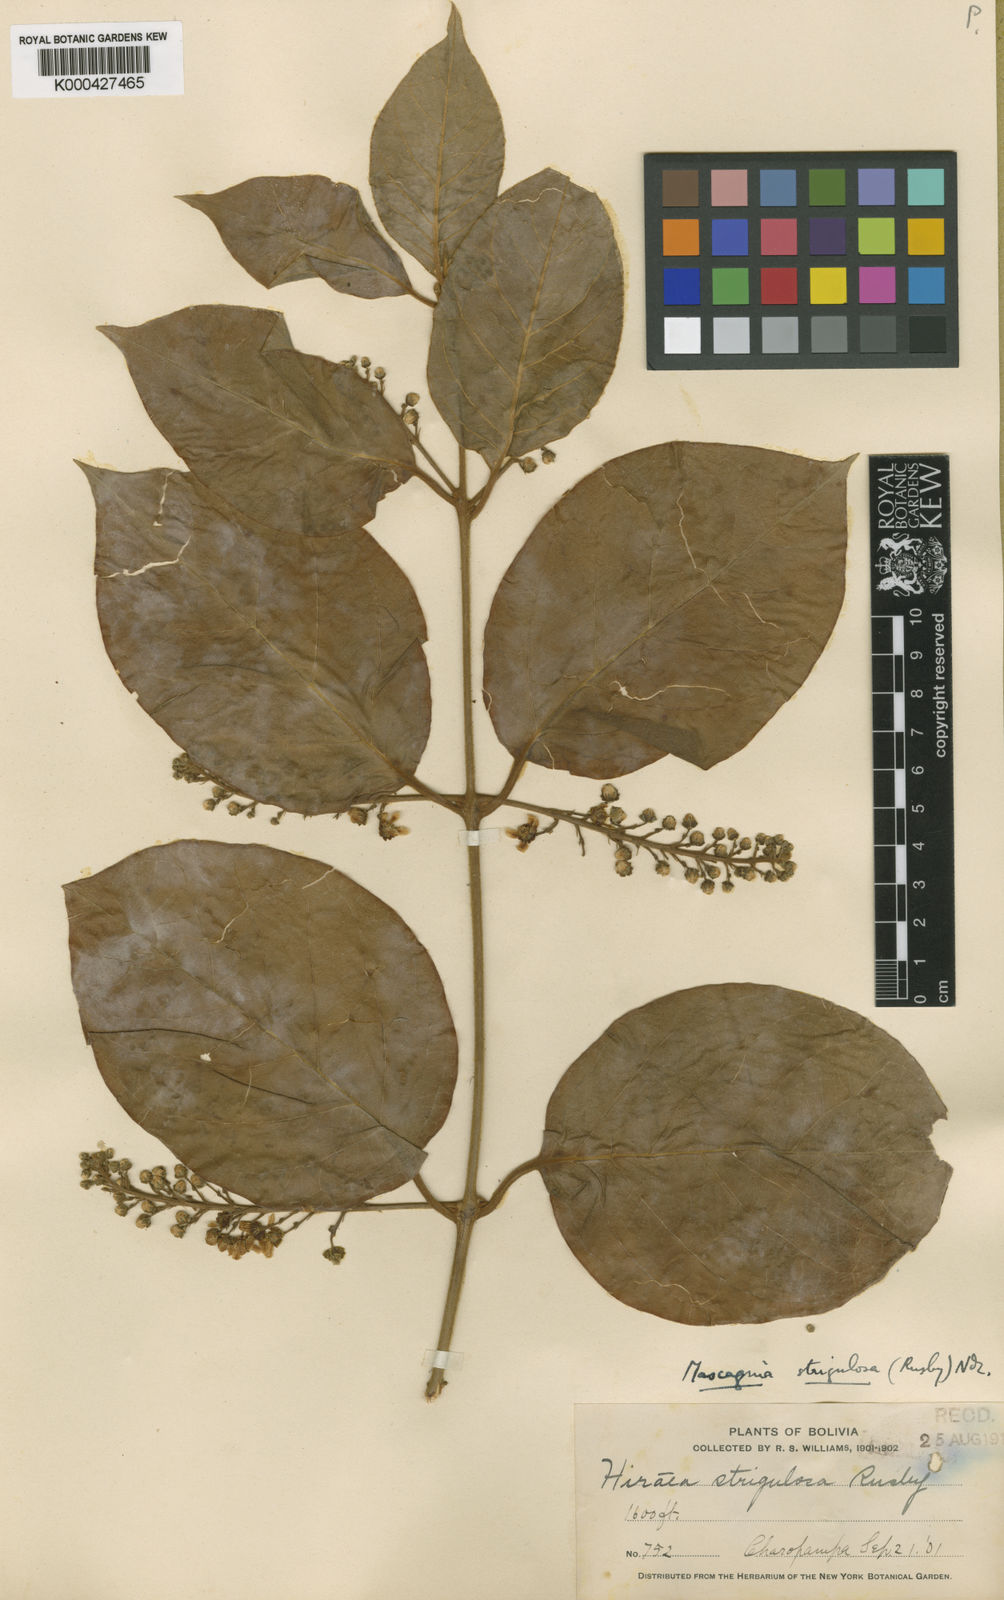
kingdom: Plantae
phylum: Tracheophyta
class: Magnoliopsida
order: Malpighiales
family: Malpighiaceae
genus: Mascagnia
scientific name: Mascagnia strigulosa
